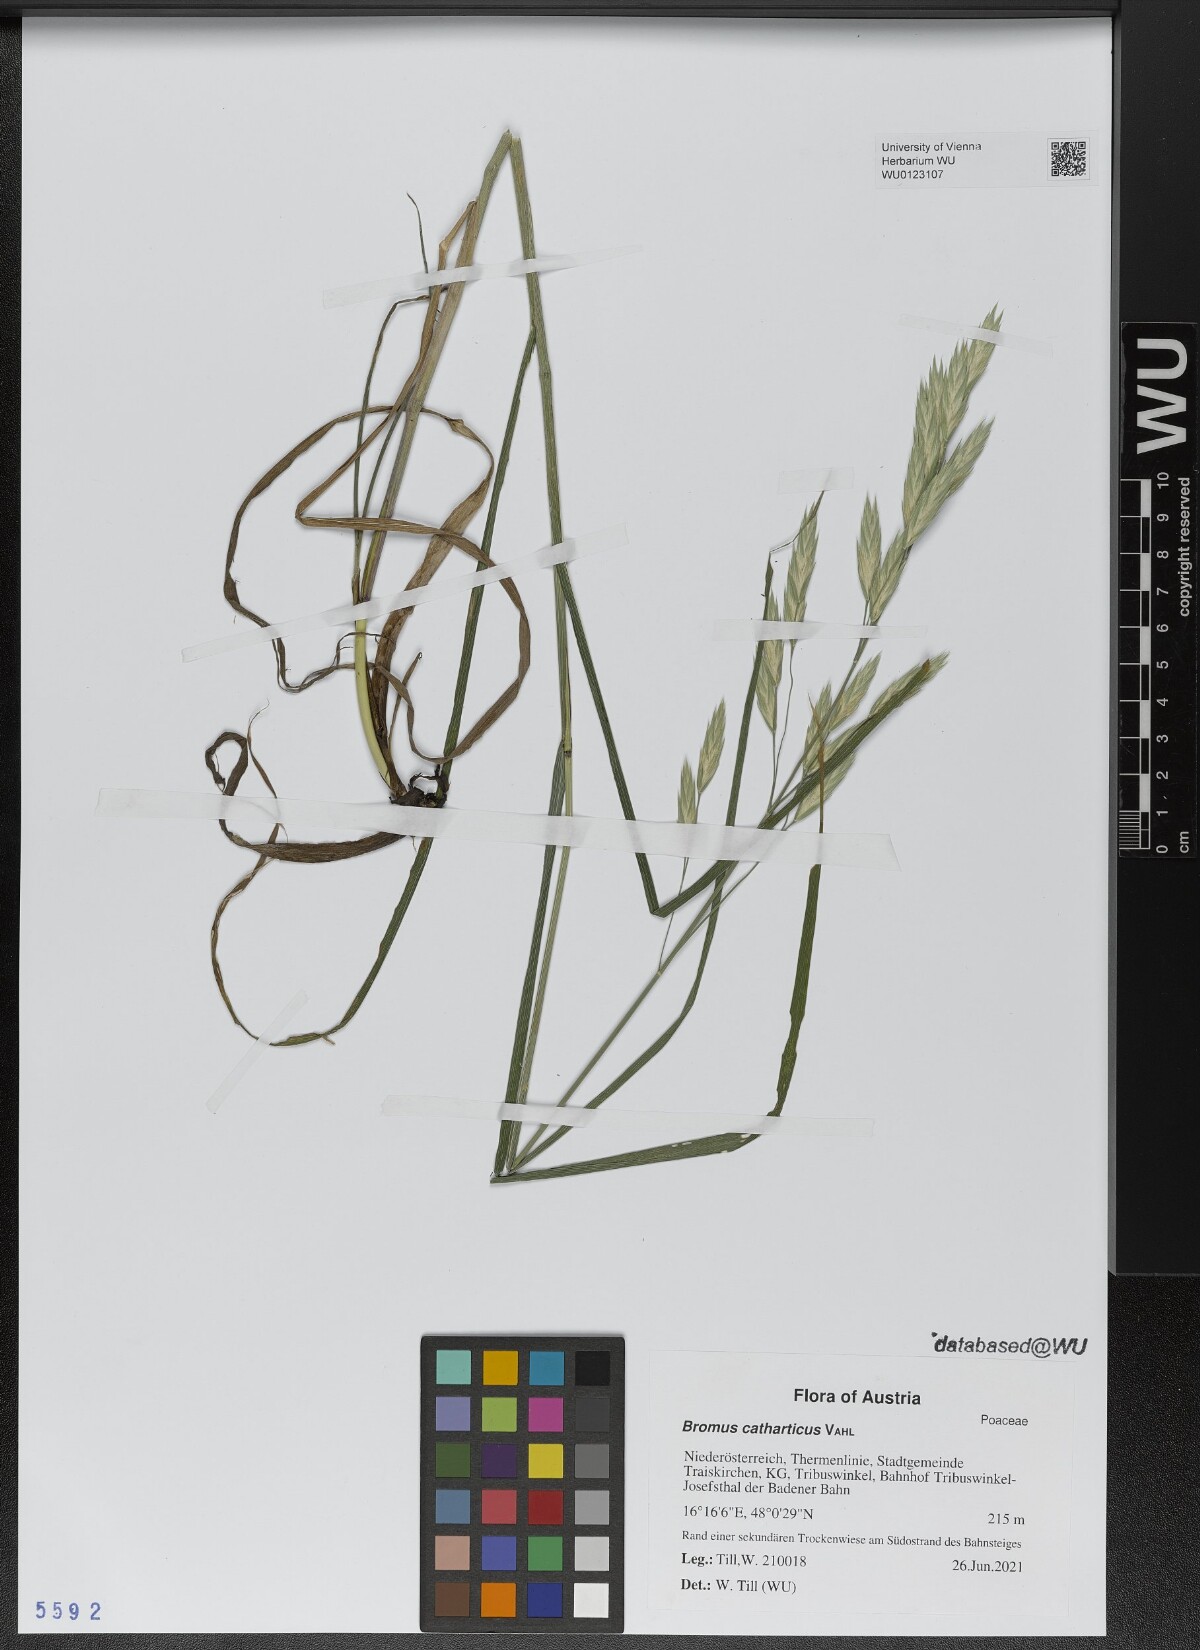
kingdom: Plantae
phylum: Tracheophyta
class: Liliopsida
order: Poales
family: Poaceae
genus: Bromus
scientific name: Bromus catharticus
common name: Rescuegrass
